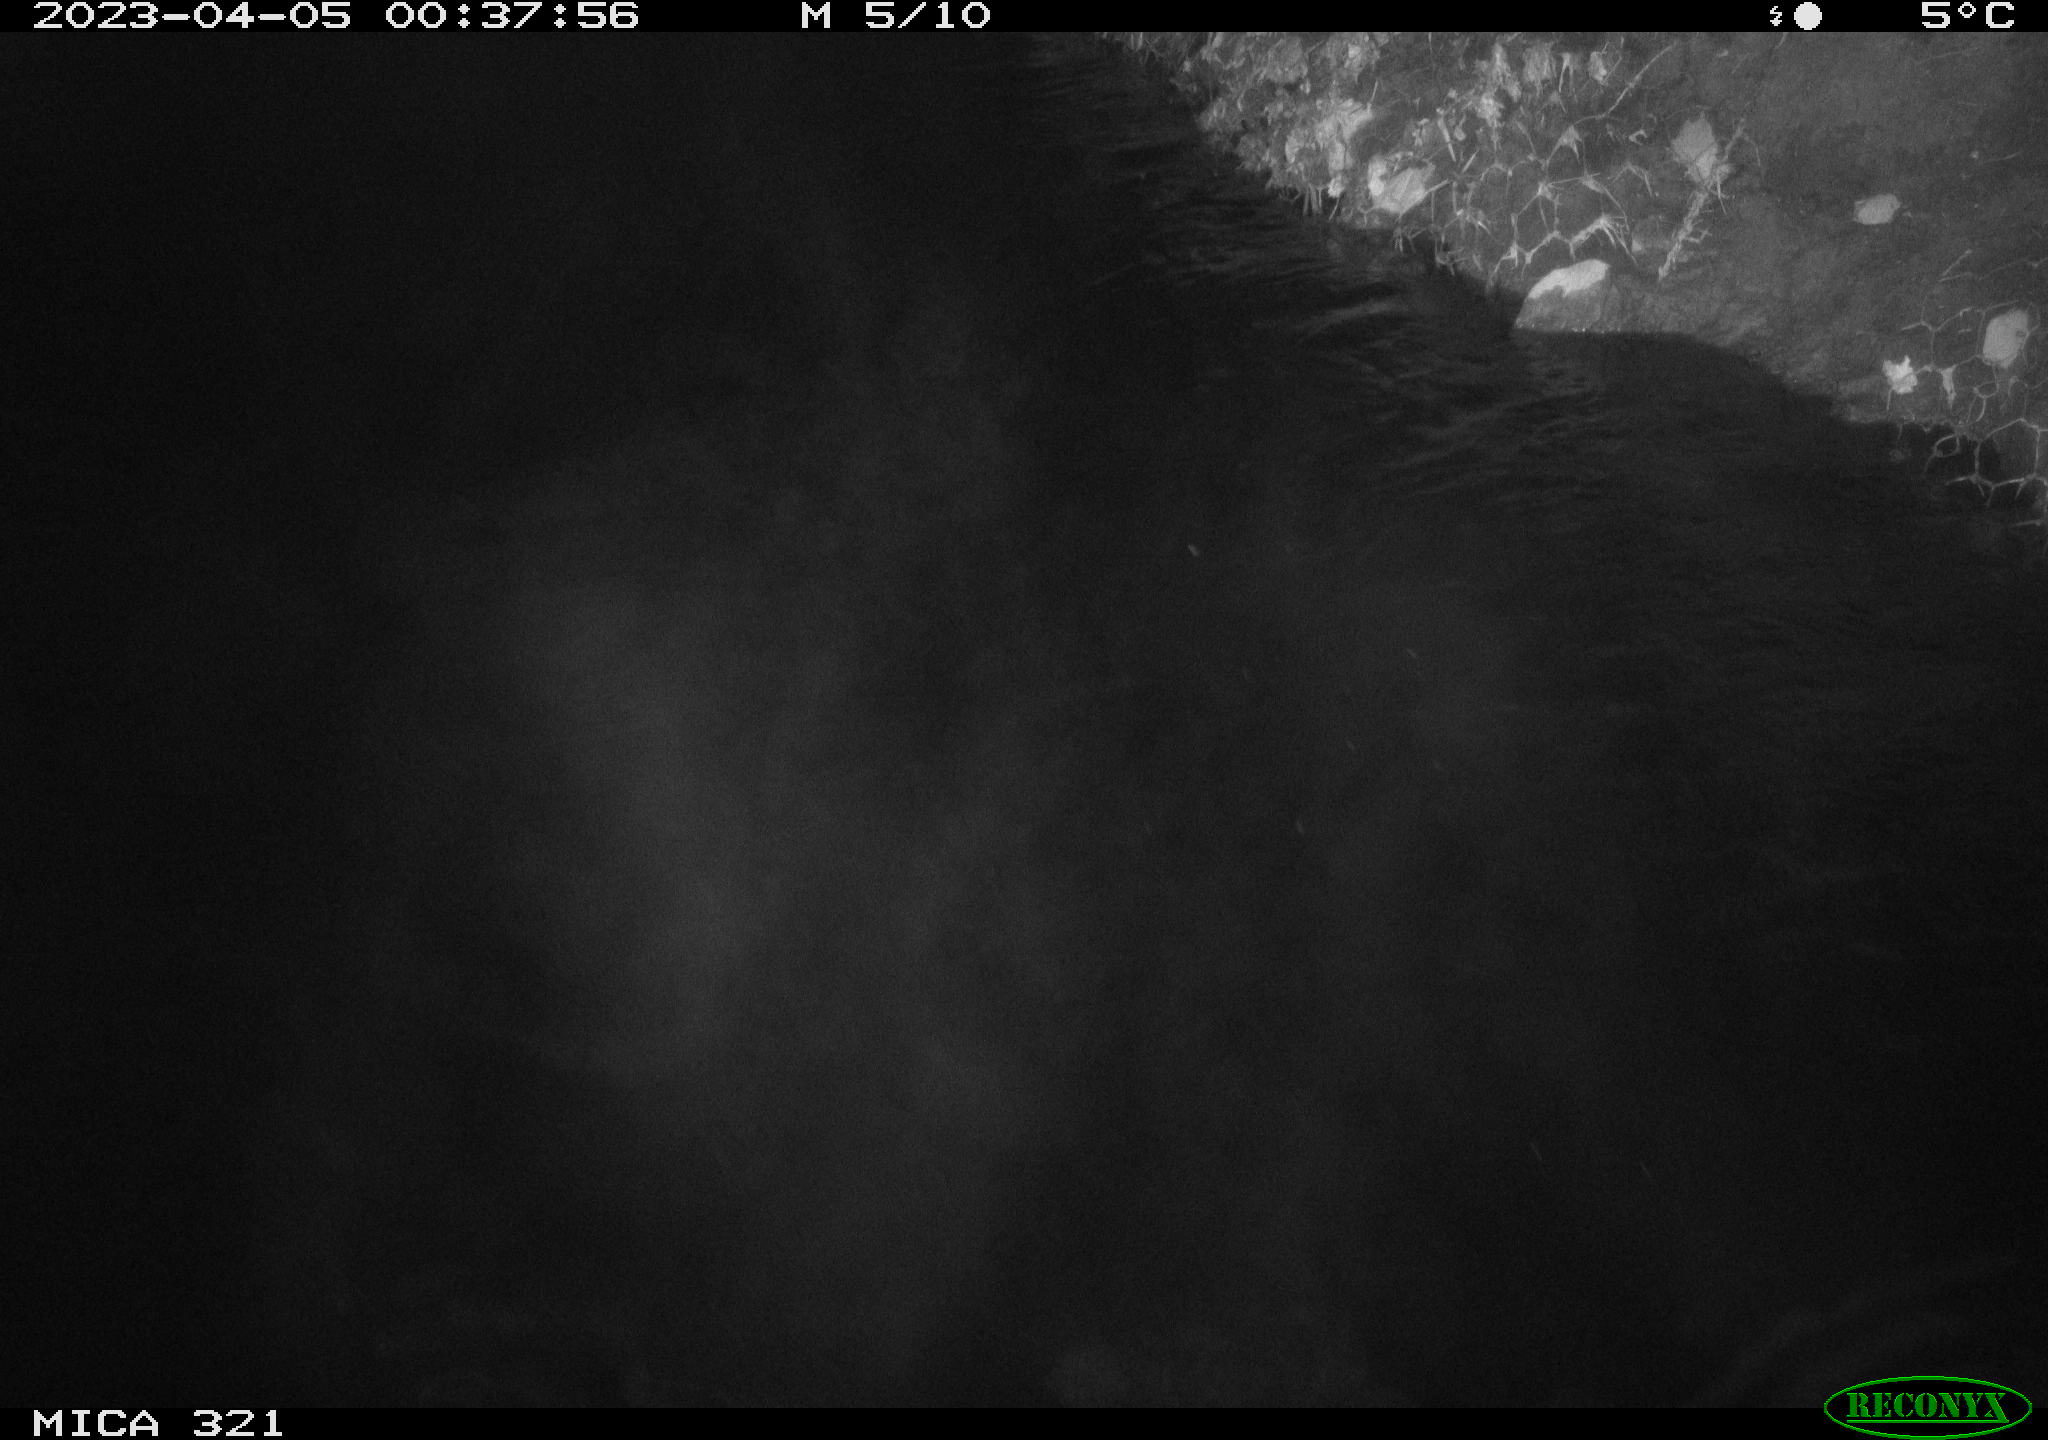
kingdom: Animalia
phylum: Chordata
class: Aves
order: Anseriformes
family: Anatidae
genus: Anas
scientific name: Anas
